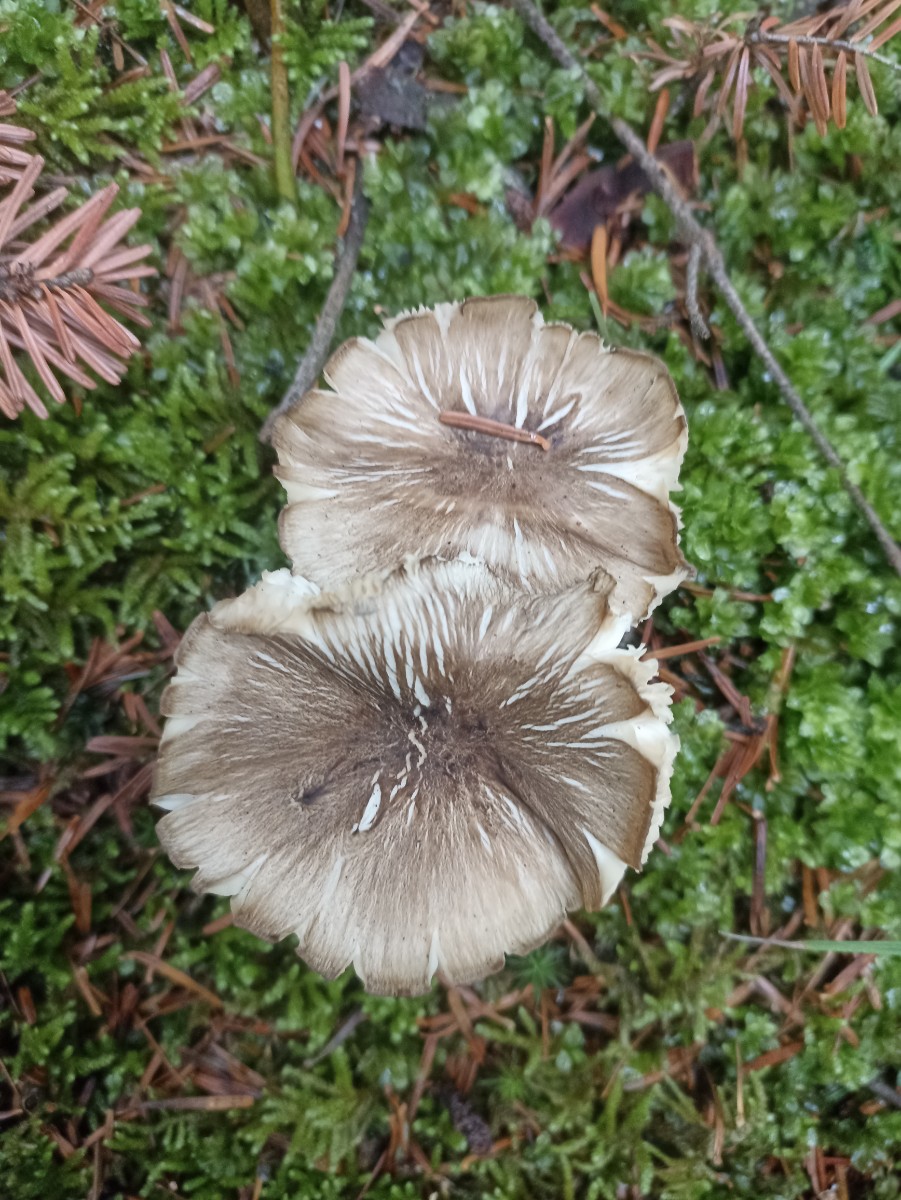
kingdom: Fungi
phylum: Basidiomycota
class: Agaricomycetes
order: Agaricales
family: Tricholomataceae
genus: Megacollybia
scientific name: Megacollybia platyphylla
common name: bredbladet væbnerhat
